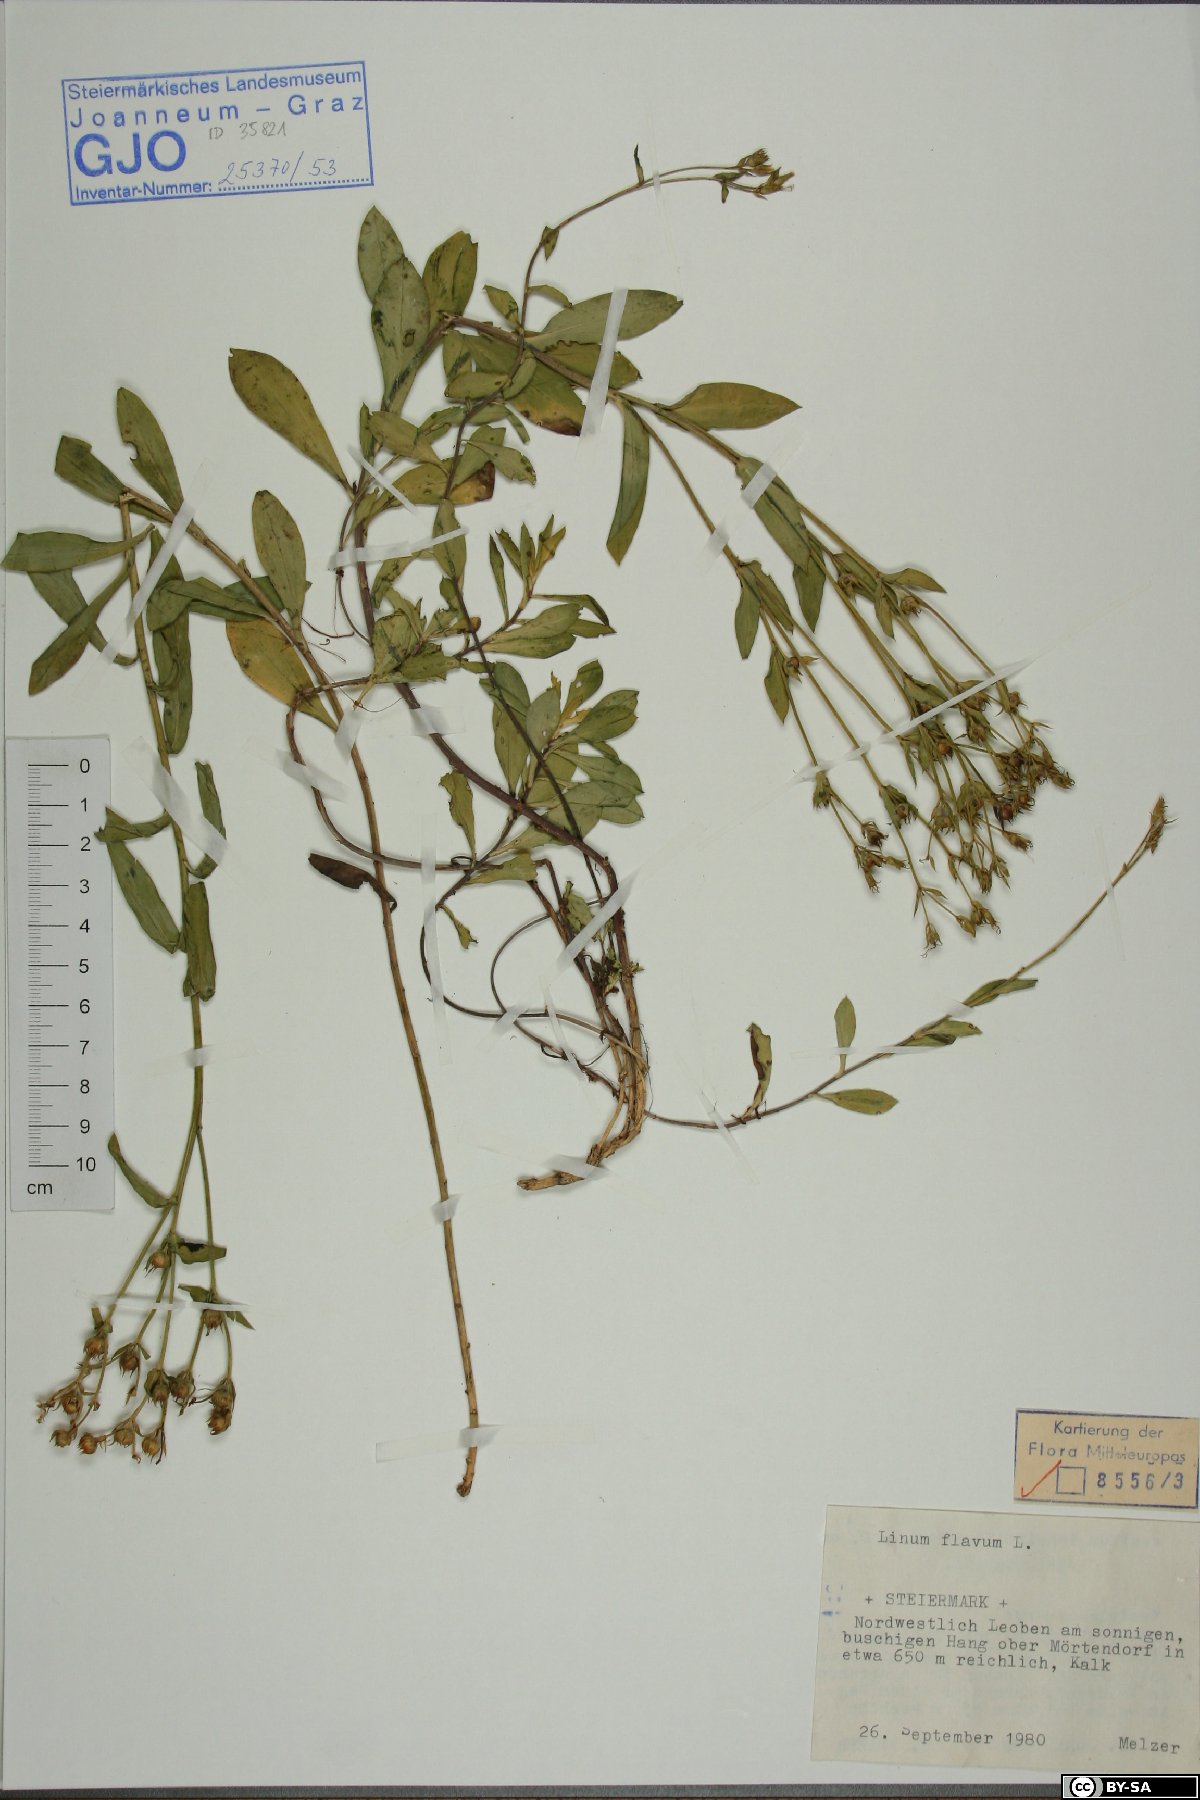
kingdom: Plantae
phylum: Tracheophyta
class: Magnoliopsida
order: Malpighiales
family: Linaceae
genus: Linum
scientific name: Linum flavum
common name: Yellow flax
